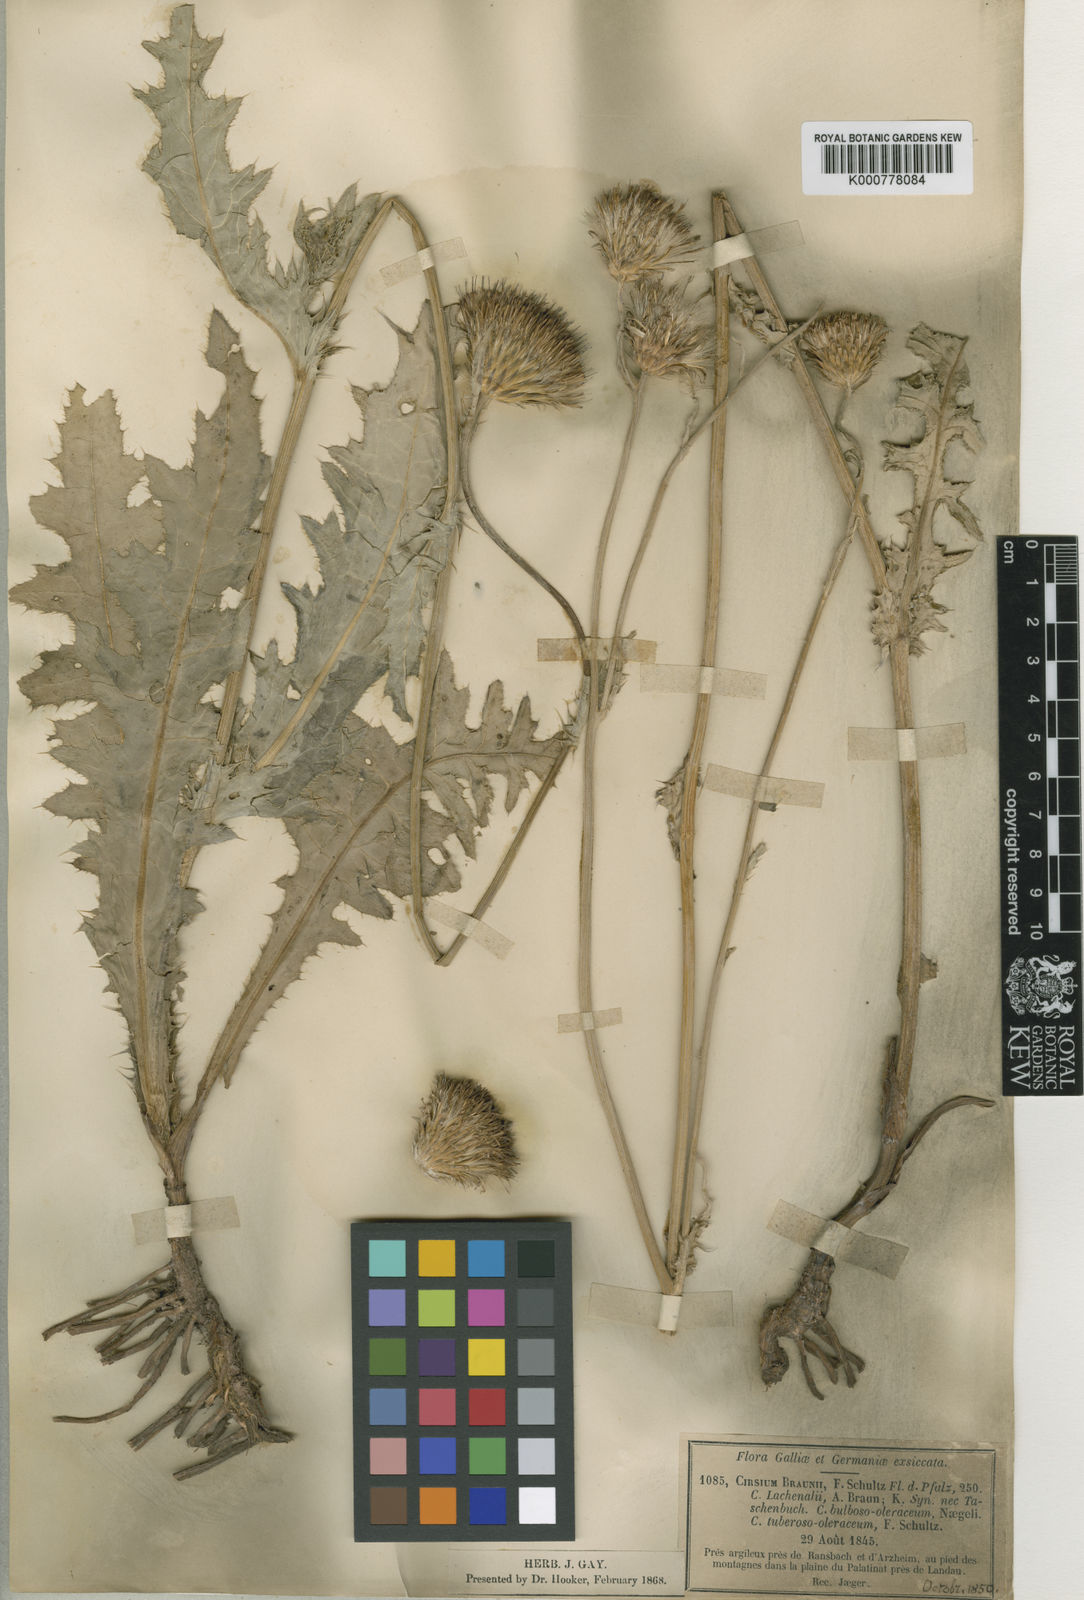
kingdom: Plantae
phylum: Tracheophyta
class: Magnoliopsida
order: Asterales
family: Asteraceae
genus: Cirsium
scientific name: Cirsium oleraceum
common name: Cabbage thistle
